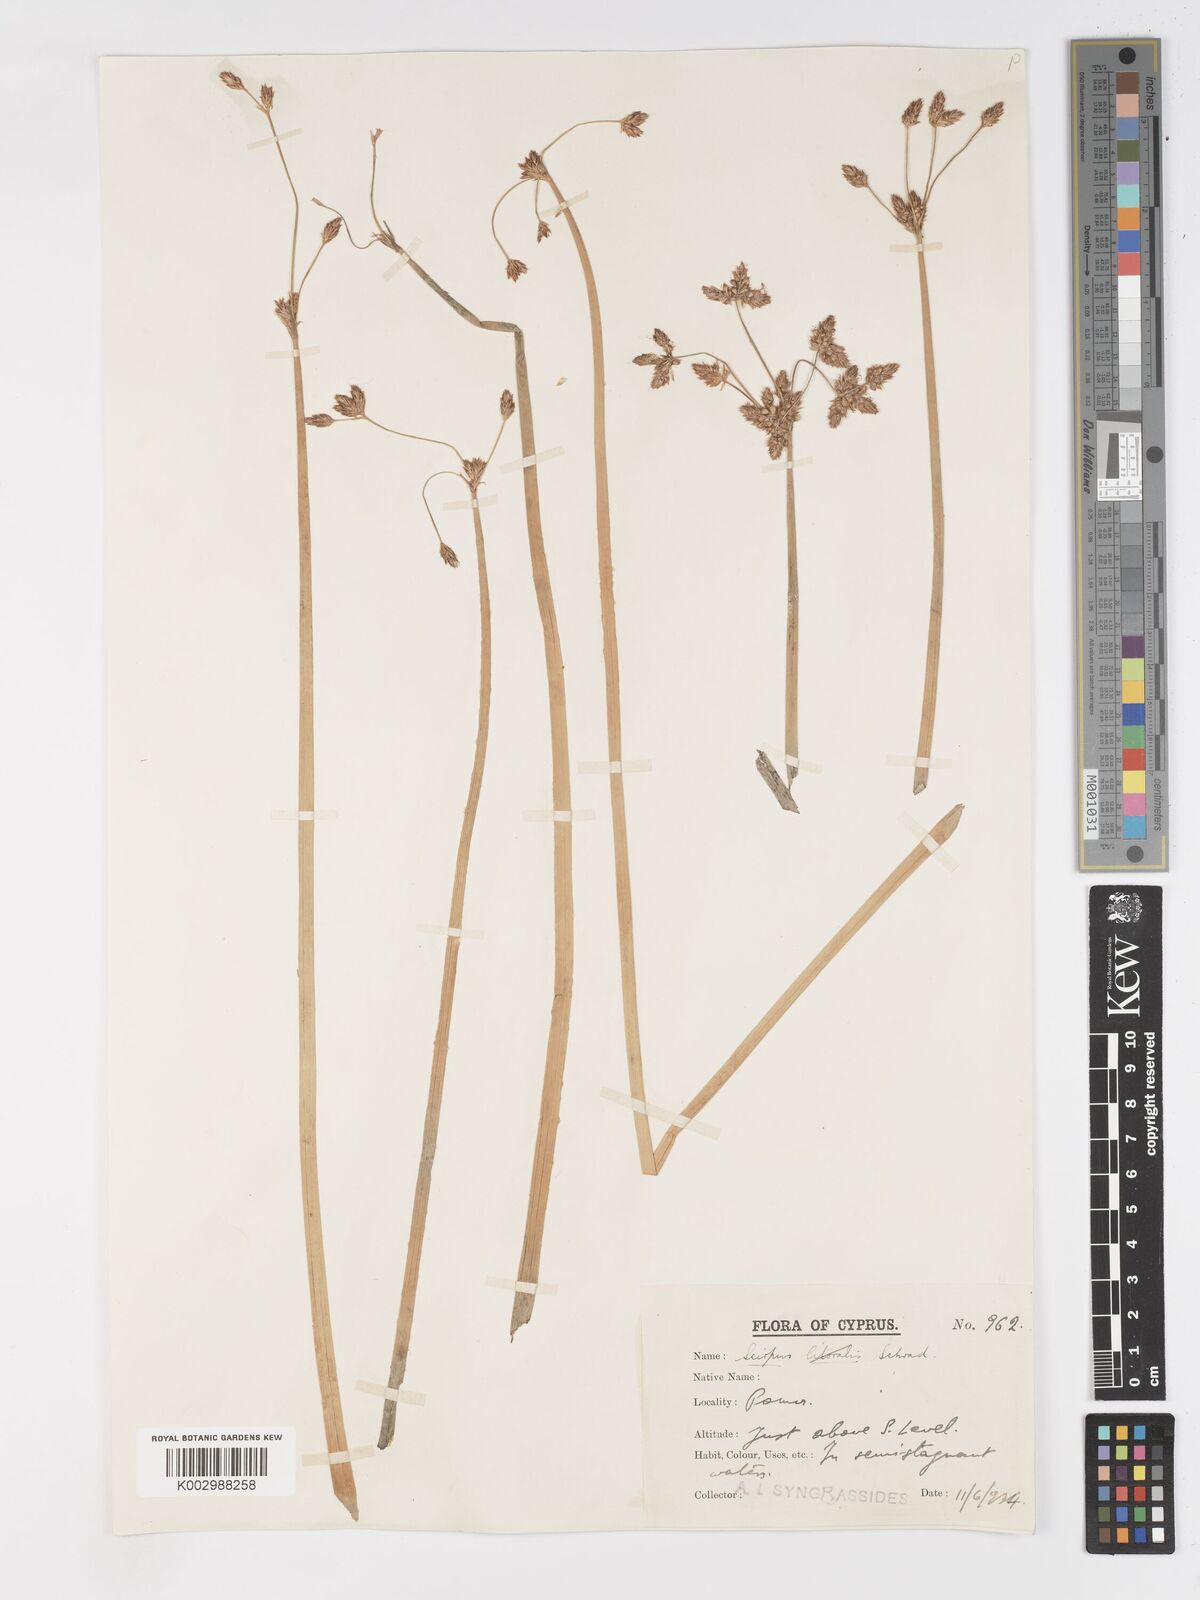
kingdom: Plantae
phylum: Tracheophyta
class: Liliopsida
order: Poales
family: Cyperaceae
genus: Schoenoplectus
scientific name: Schoenoplectus
